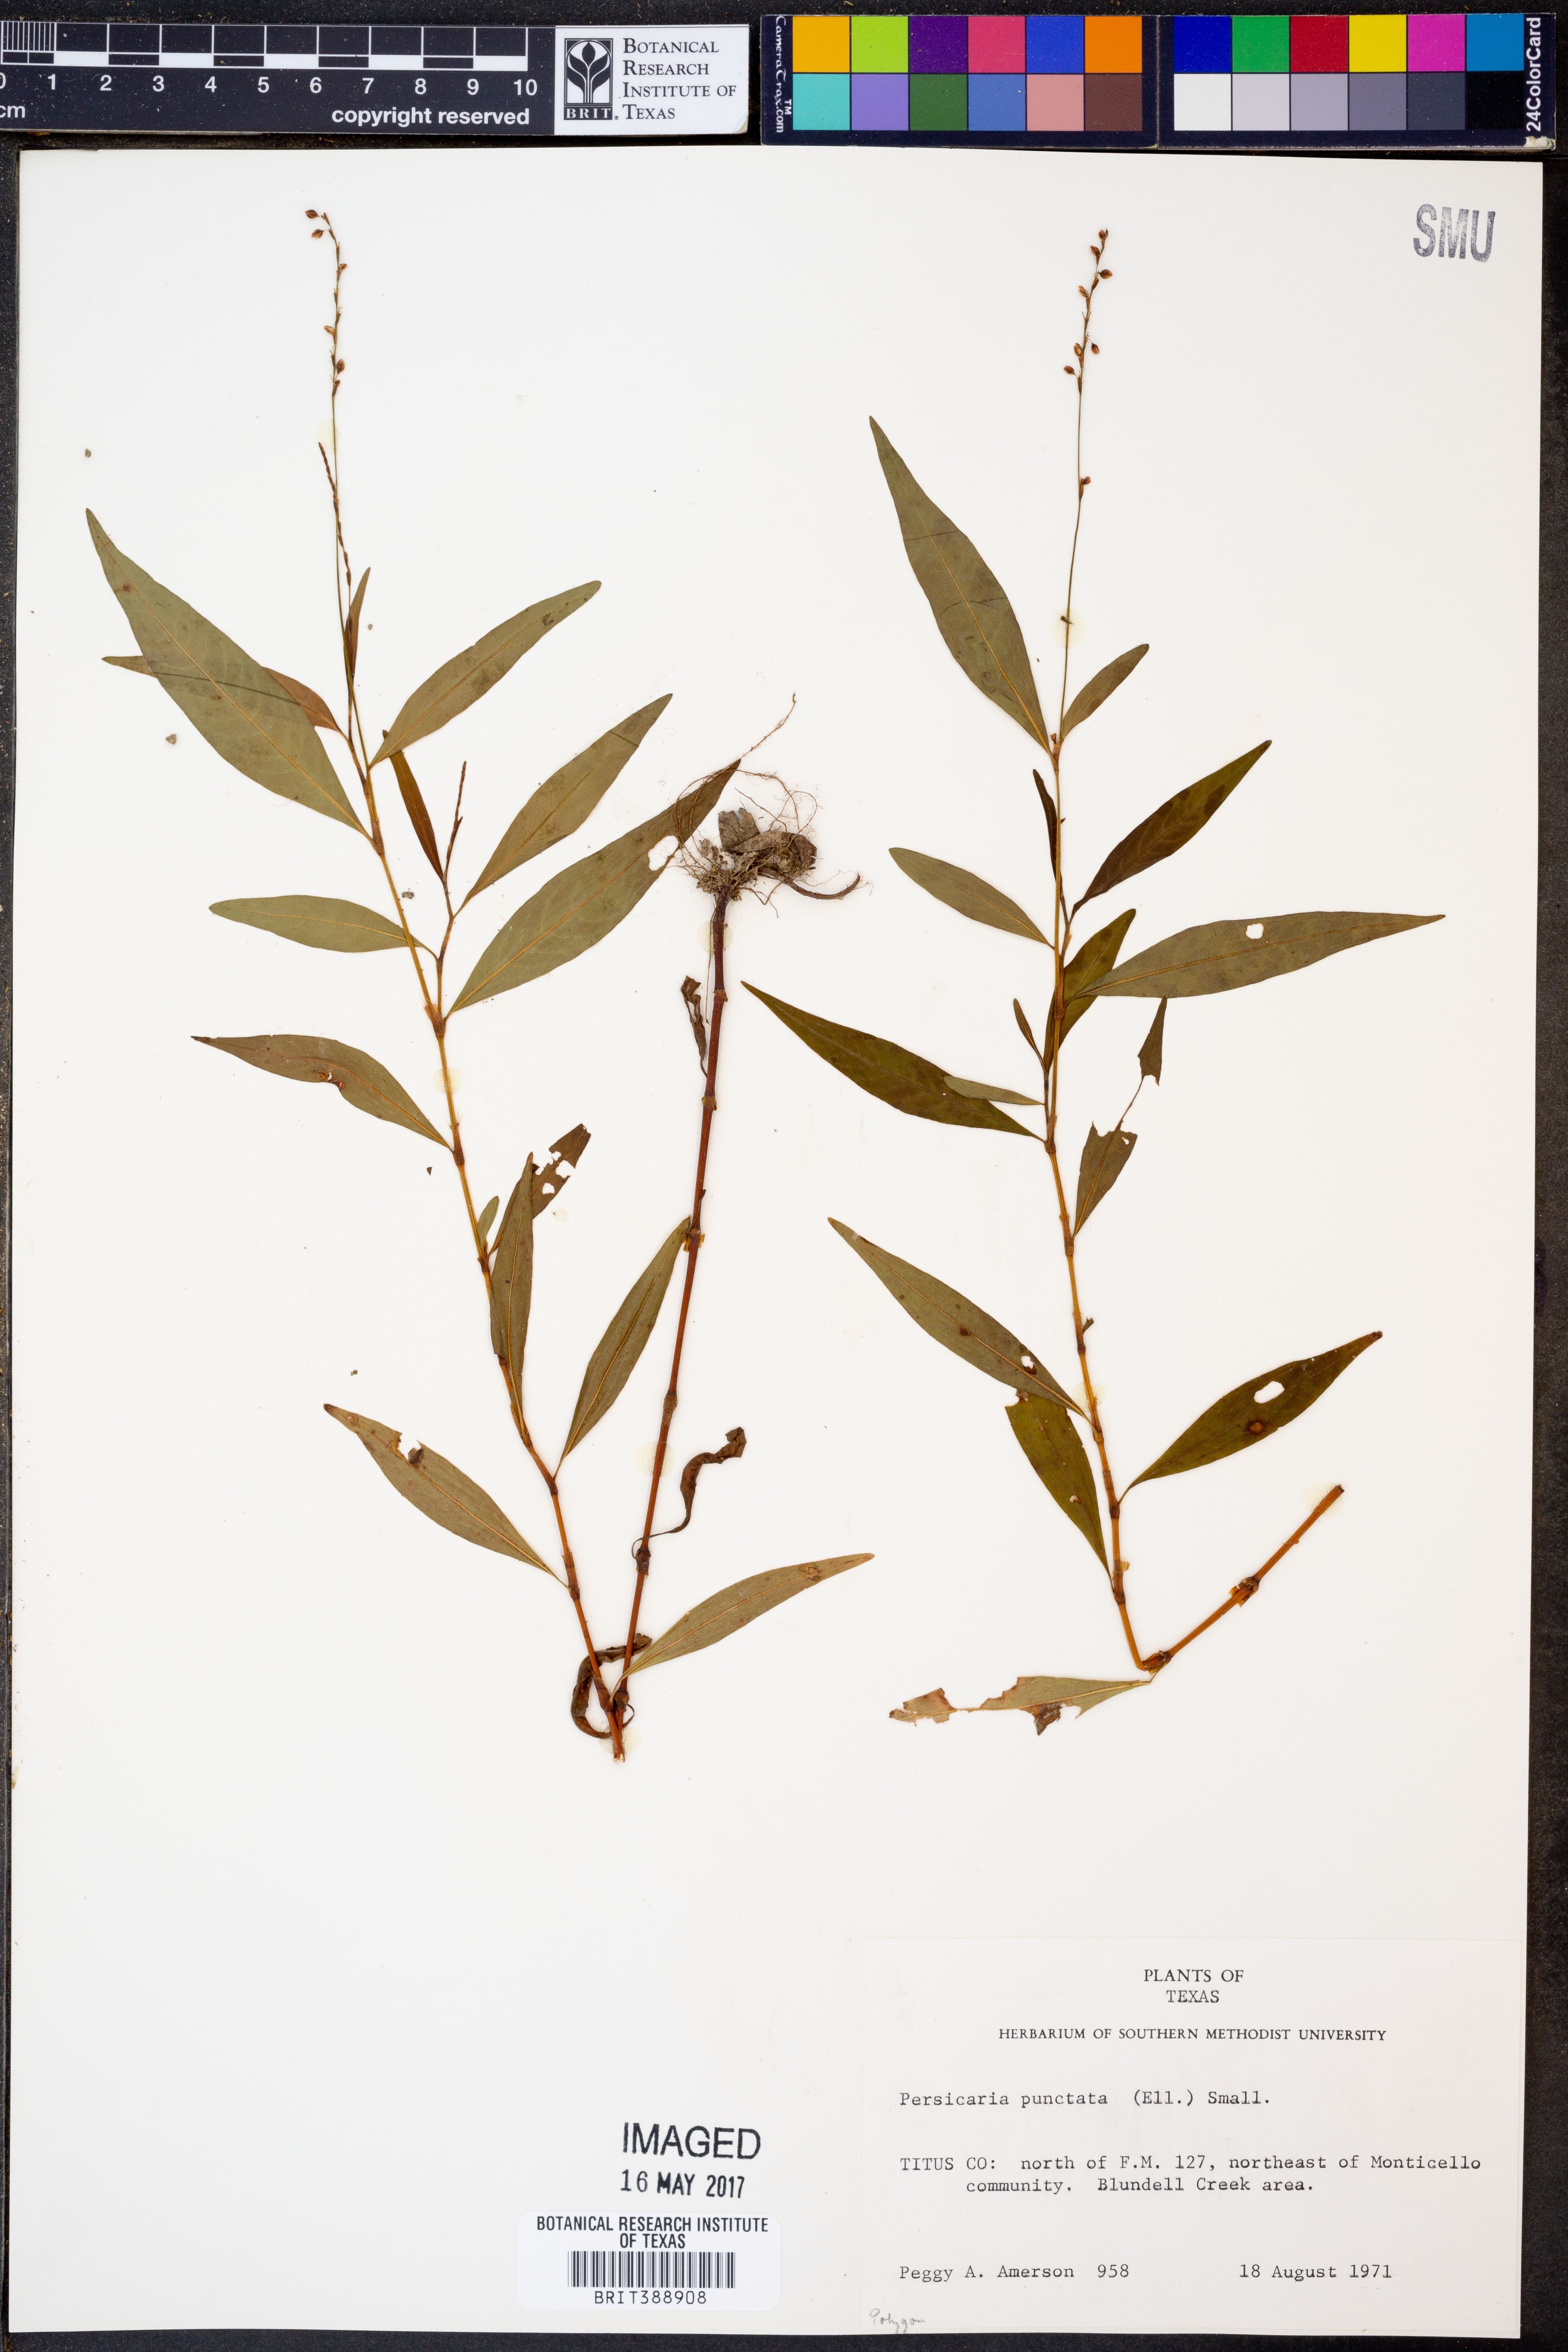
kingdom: Plantae
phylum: Tracheophyta
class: Magnoliopsida
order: Caryophyllales
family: Polygonaceae
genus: Persicaria
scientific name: Persicaria punctata
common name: Dotted smartweed
